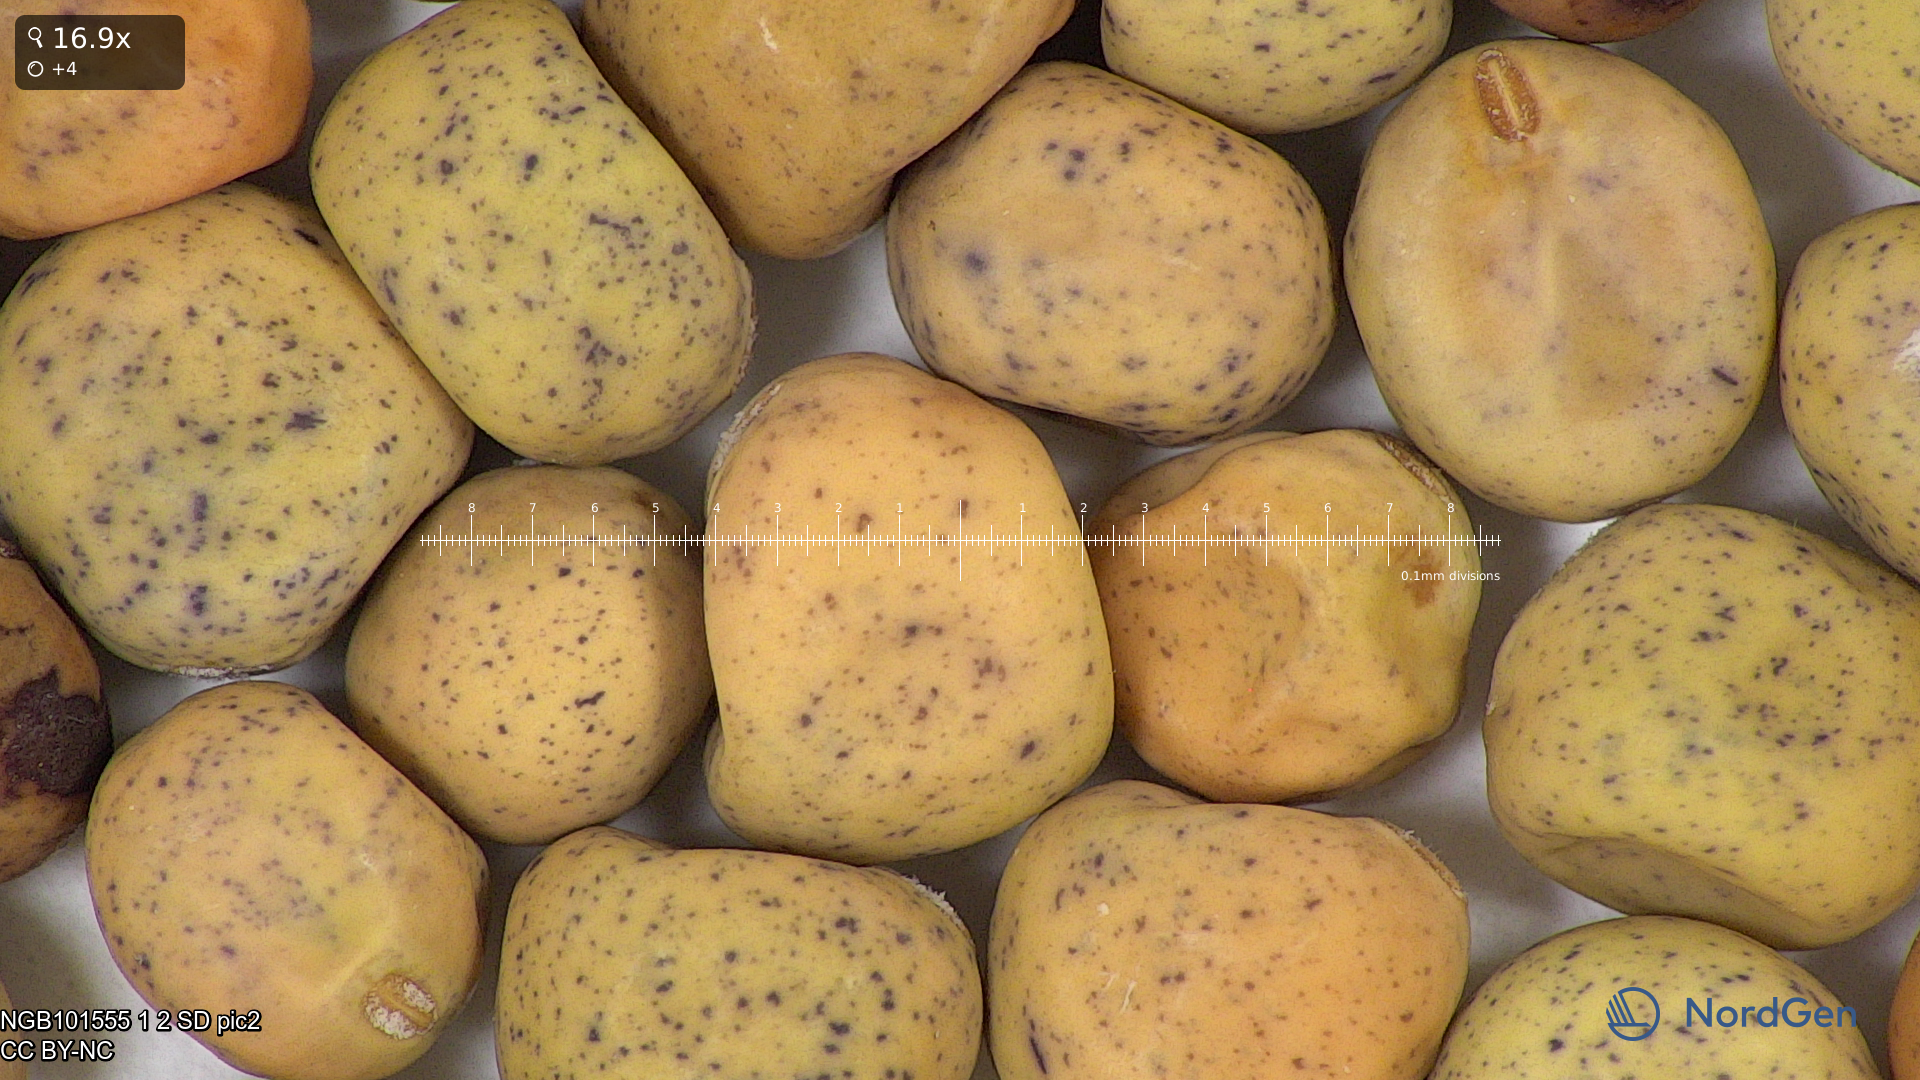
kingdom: Plantae
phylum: Tracheophyta
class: Magnoliopsida
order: Fabales
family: Fabaceae
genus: Lathyrus
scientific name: Lathyrus oleraceus
